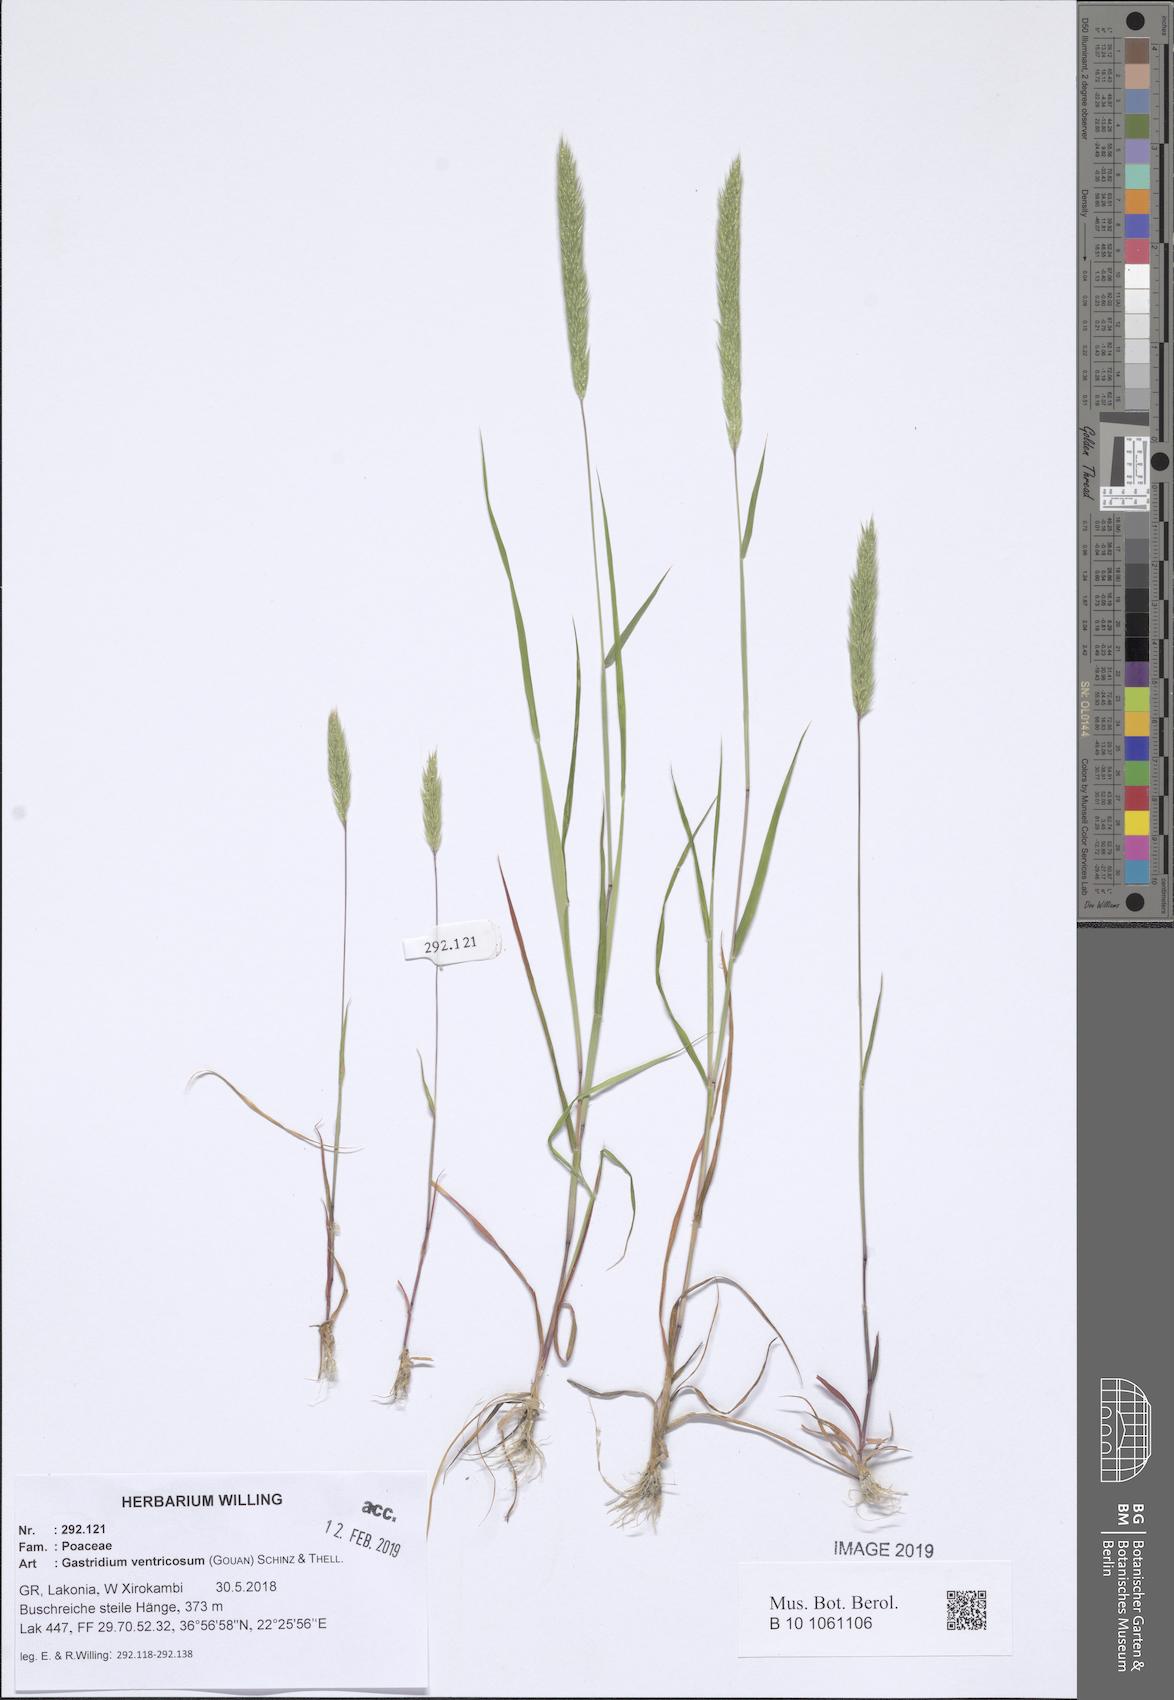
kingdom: Plantae
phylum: Tracheophyta
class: Liliopsida
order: Poales
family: Poaceae
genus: Gastridium
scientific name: Gastridium ventricosum
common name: Nit-grass
